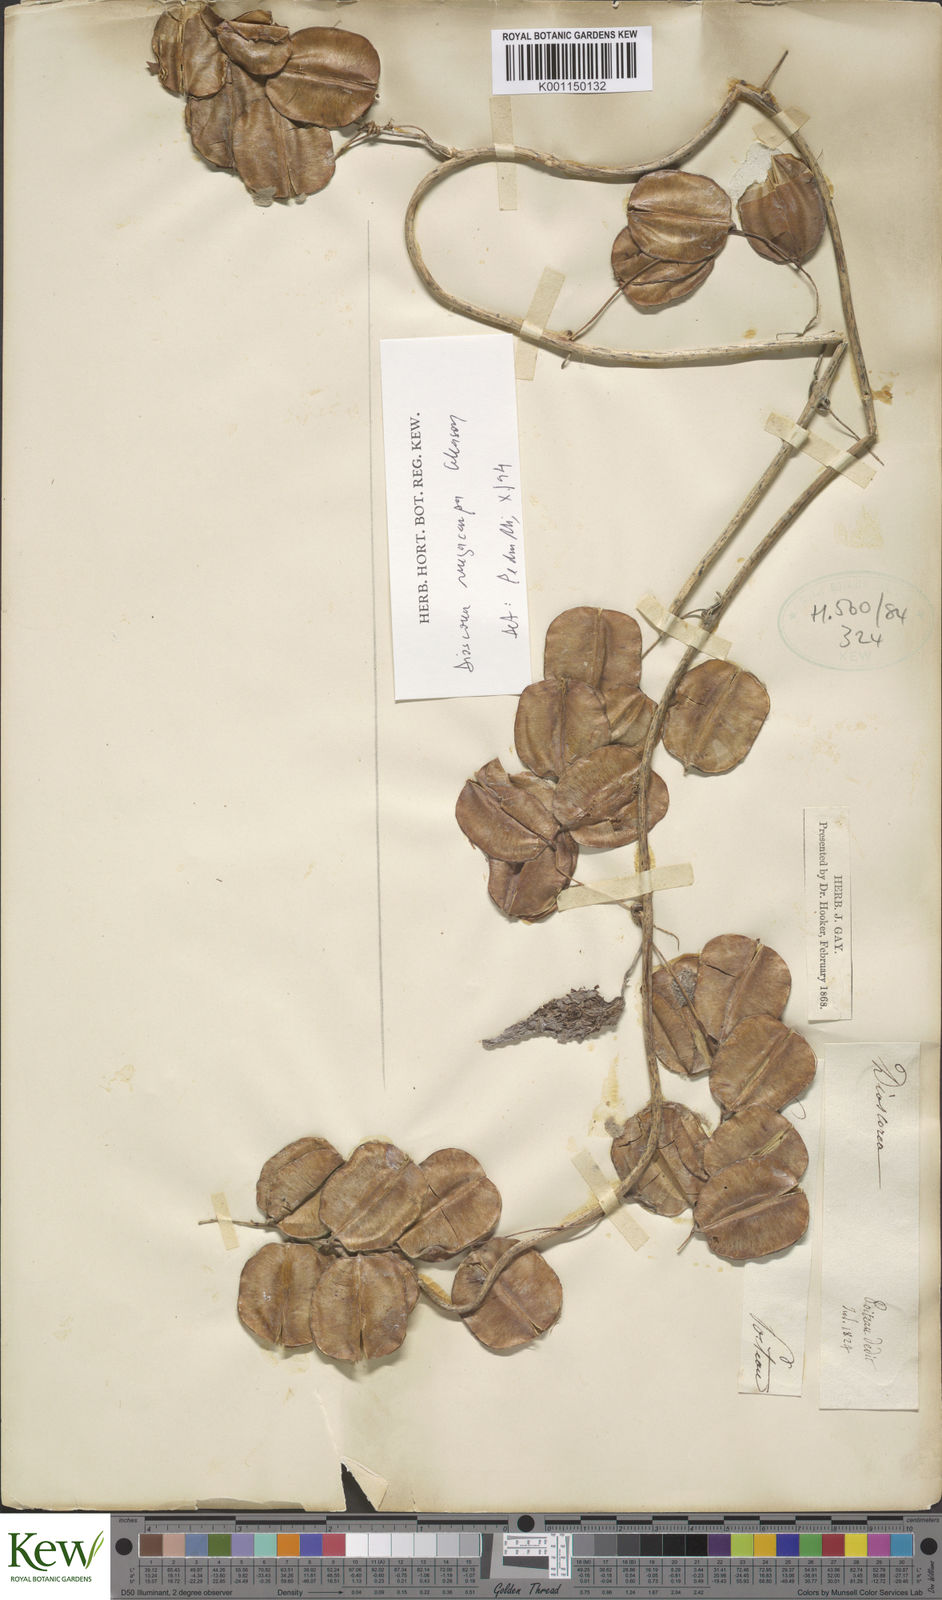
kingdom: Plantae
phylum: Tracheophyta
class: Liliopsida
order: Dioscoreales
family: Dioscoreaceae
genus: Dioscorea
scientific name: Dioscorea
